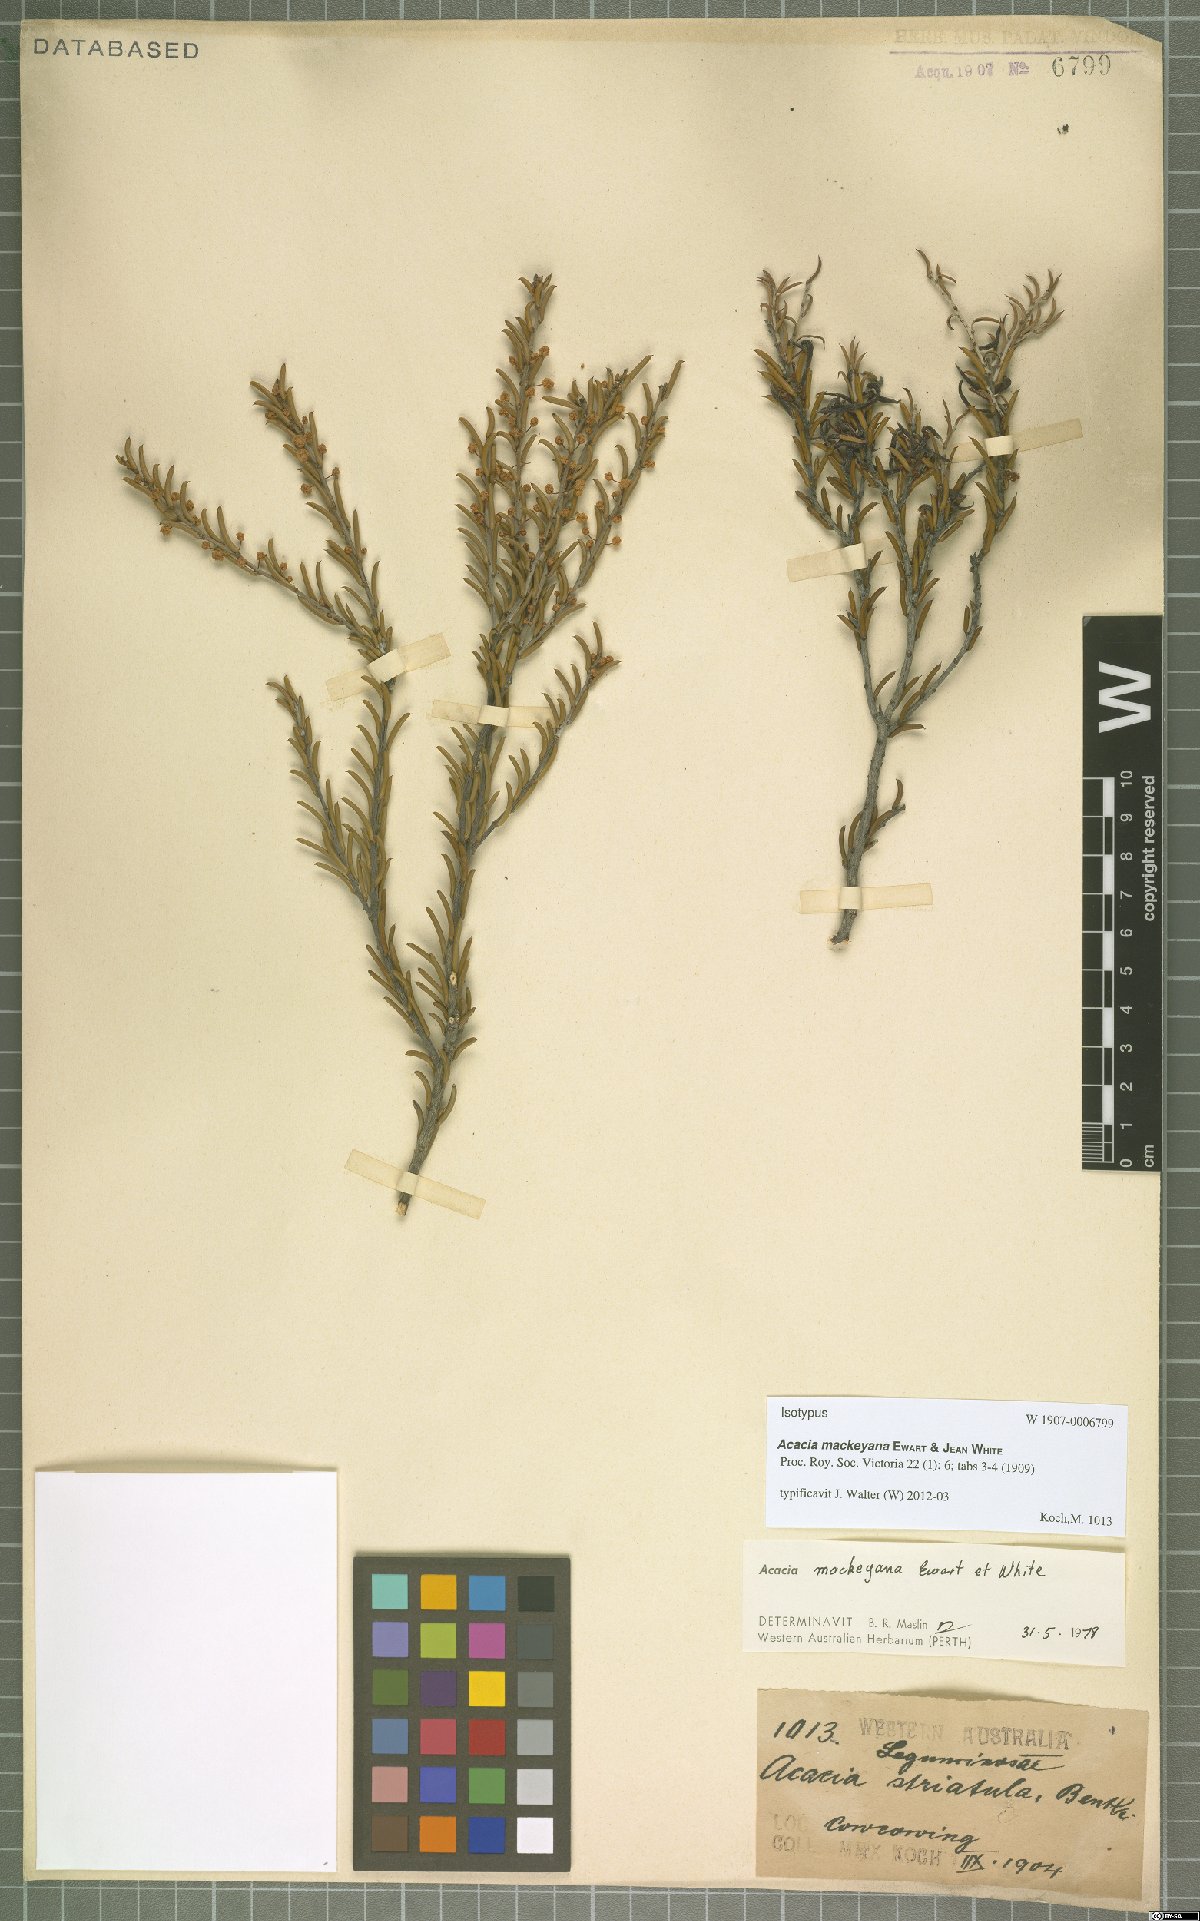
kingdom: Plantae
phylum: Tracheophyta
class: Magnoliopsida
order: Fabales
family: Fabaceae
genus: Acacia
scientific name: Acacia mackeyana
